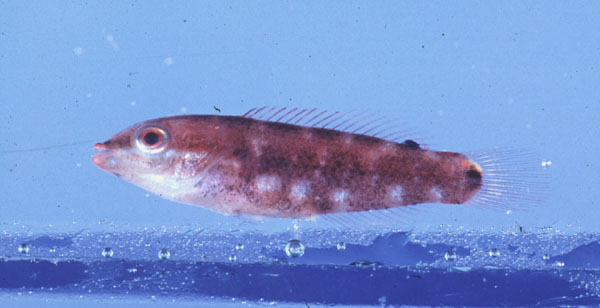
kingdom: Animalia
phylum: Chordata
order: Perciformes
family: Labridae
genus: Thalassoma
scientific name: Thalassoma
